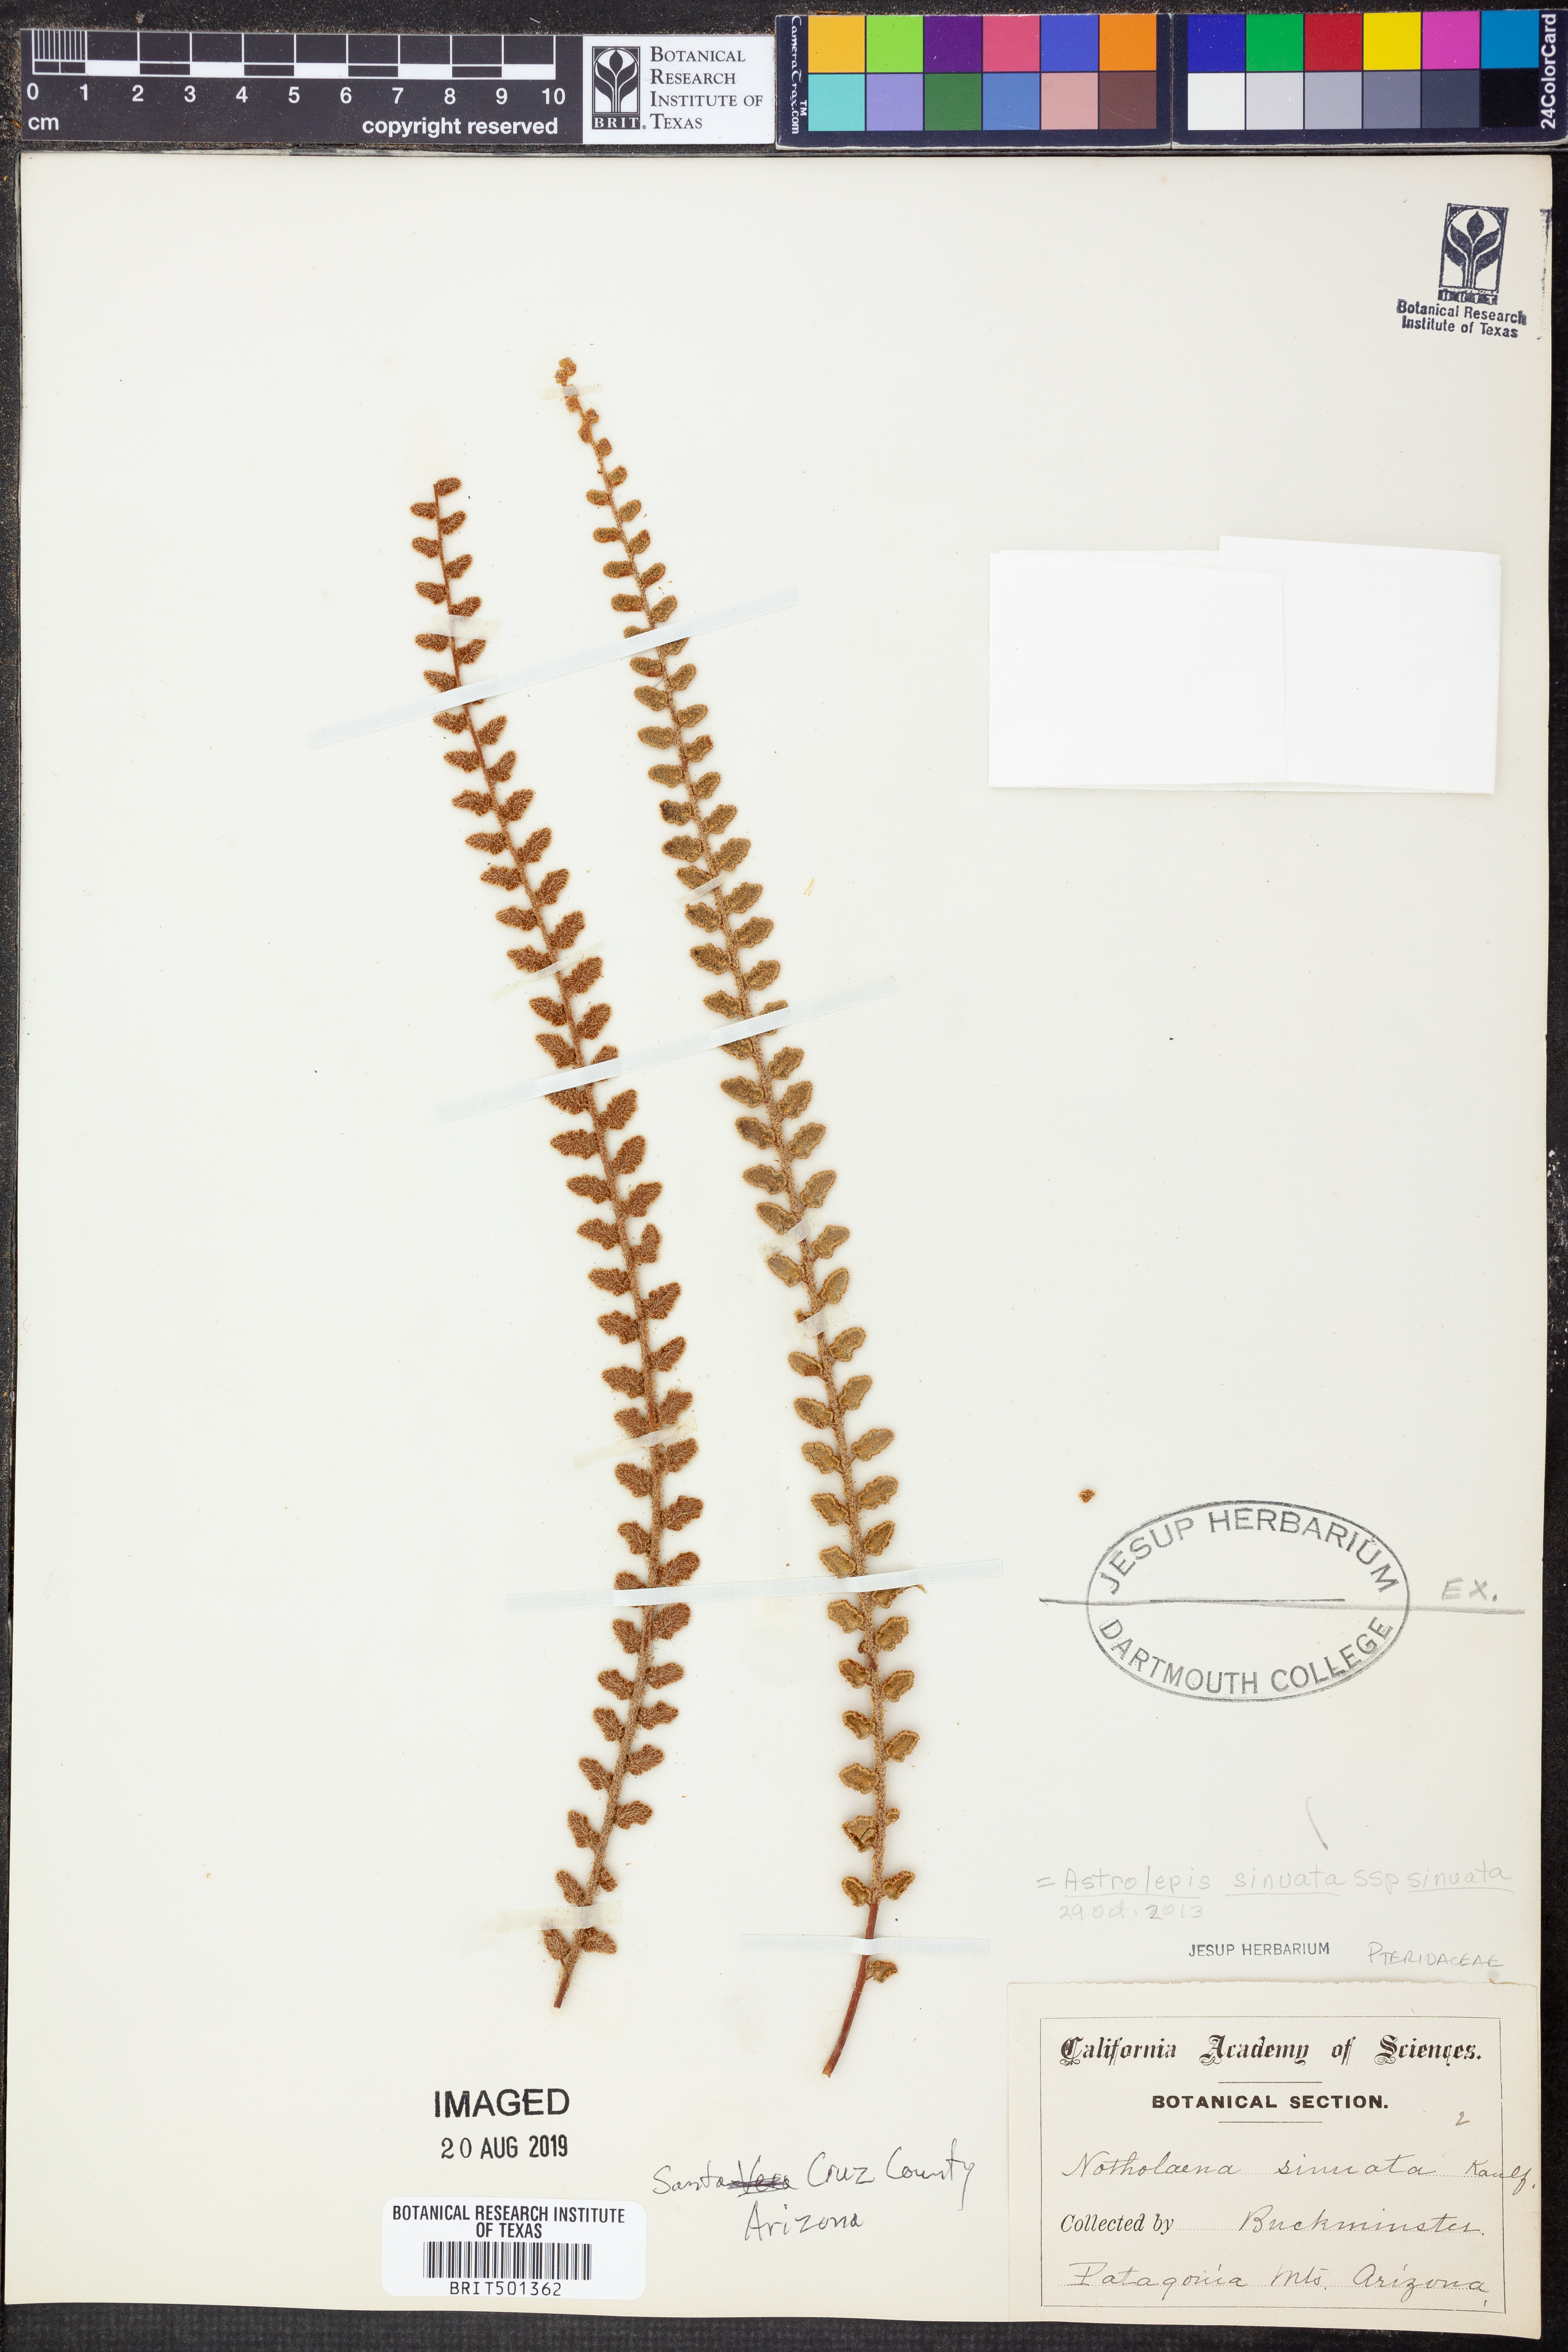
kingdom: Plantae
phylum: Tracheophyta
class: Polypodiopsida
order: Polypodiales
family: Pteridaceae
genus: Astrolepis
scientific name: Astrolepis sinuata
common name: Wavy scaly cloakfern
